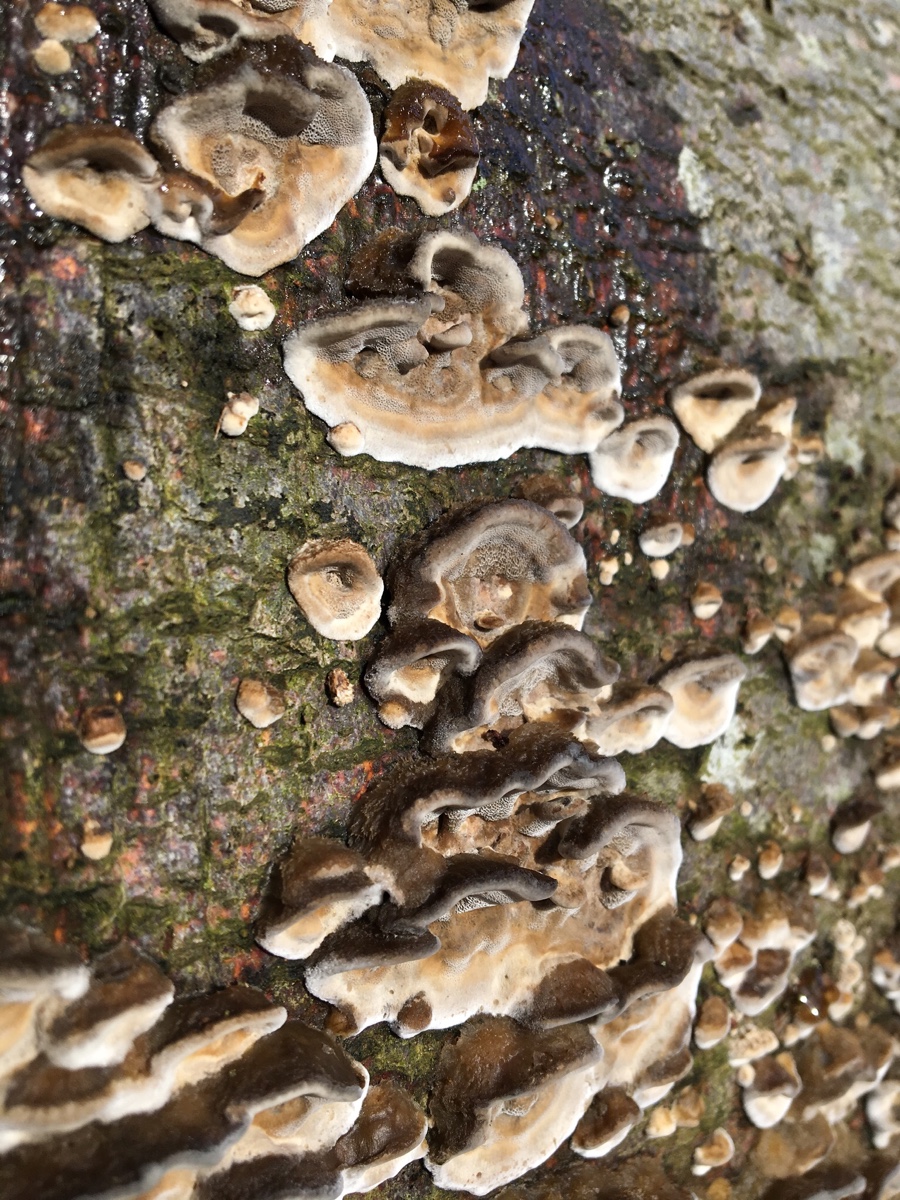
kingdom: Fungi
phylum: Basidiomycota
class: Agaricomycetes
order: Polyporales
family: Phanerochaetaceae
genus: Bjerkandera
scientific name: Bjerkandera adusta
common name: sveden sodporesvamp
